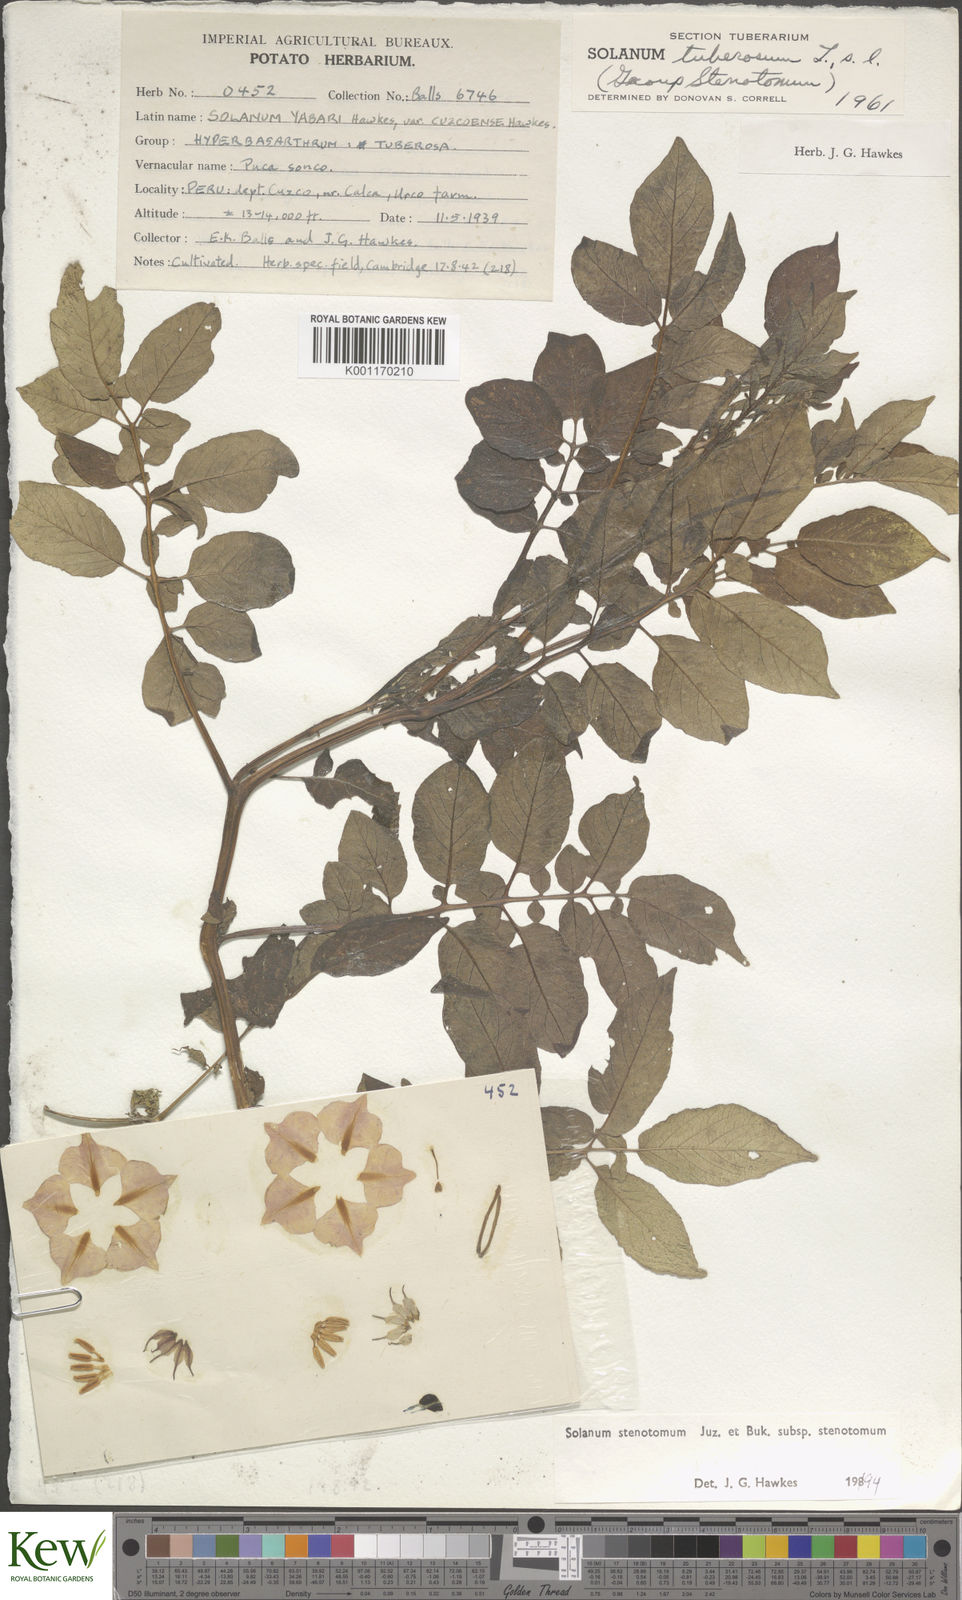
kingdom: Plantae
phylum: Tracheophyta
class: Magnoliopsida
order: Solanales
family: Solanaceae
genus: Solanum
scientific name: Solanum tuberosum
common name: Potato
